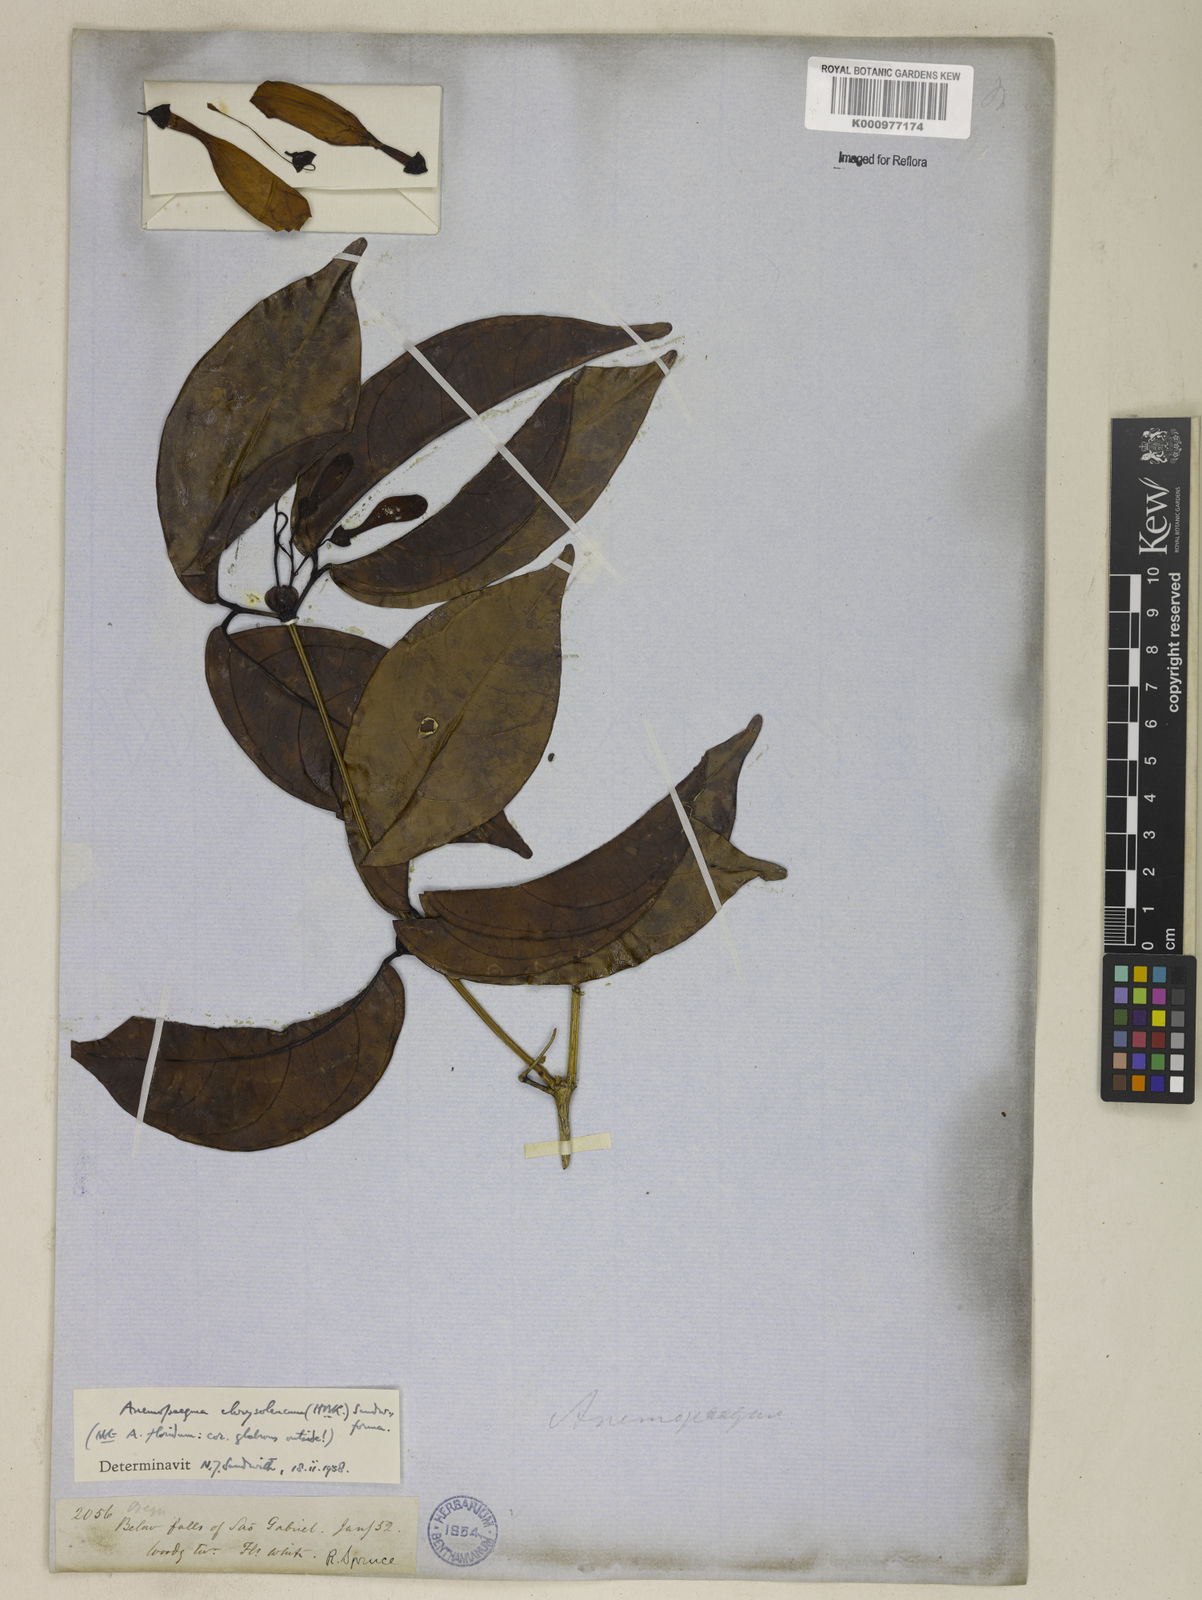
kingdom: Plantae
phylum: Tracheophyta
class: Magnoliopsida
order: Lamiales
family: Bignoniaceae
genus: Anemopaegma
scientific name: Anemopaegma
